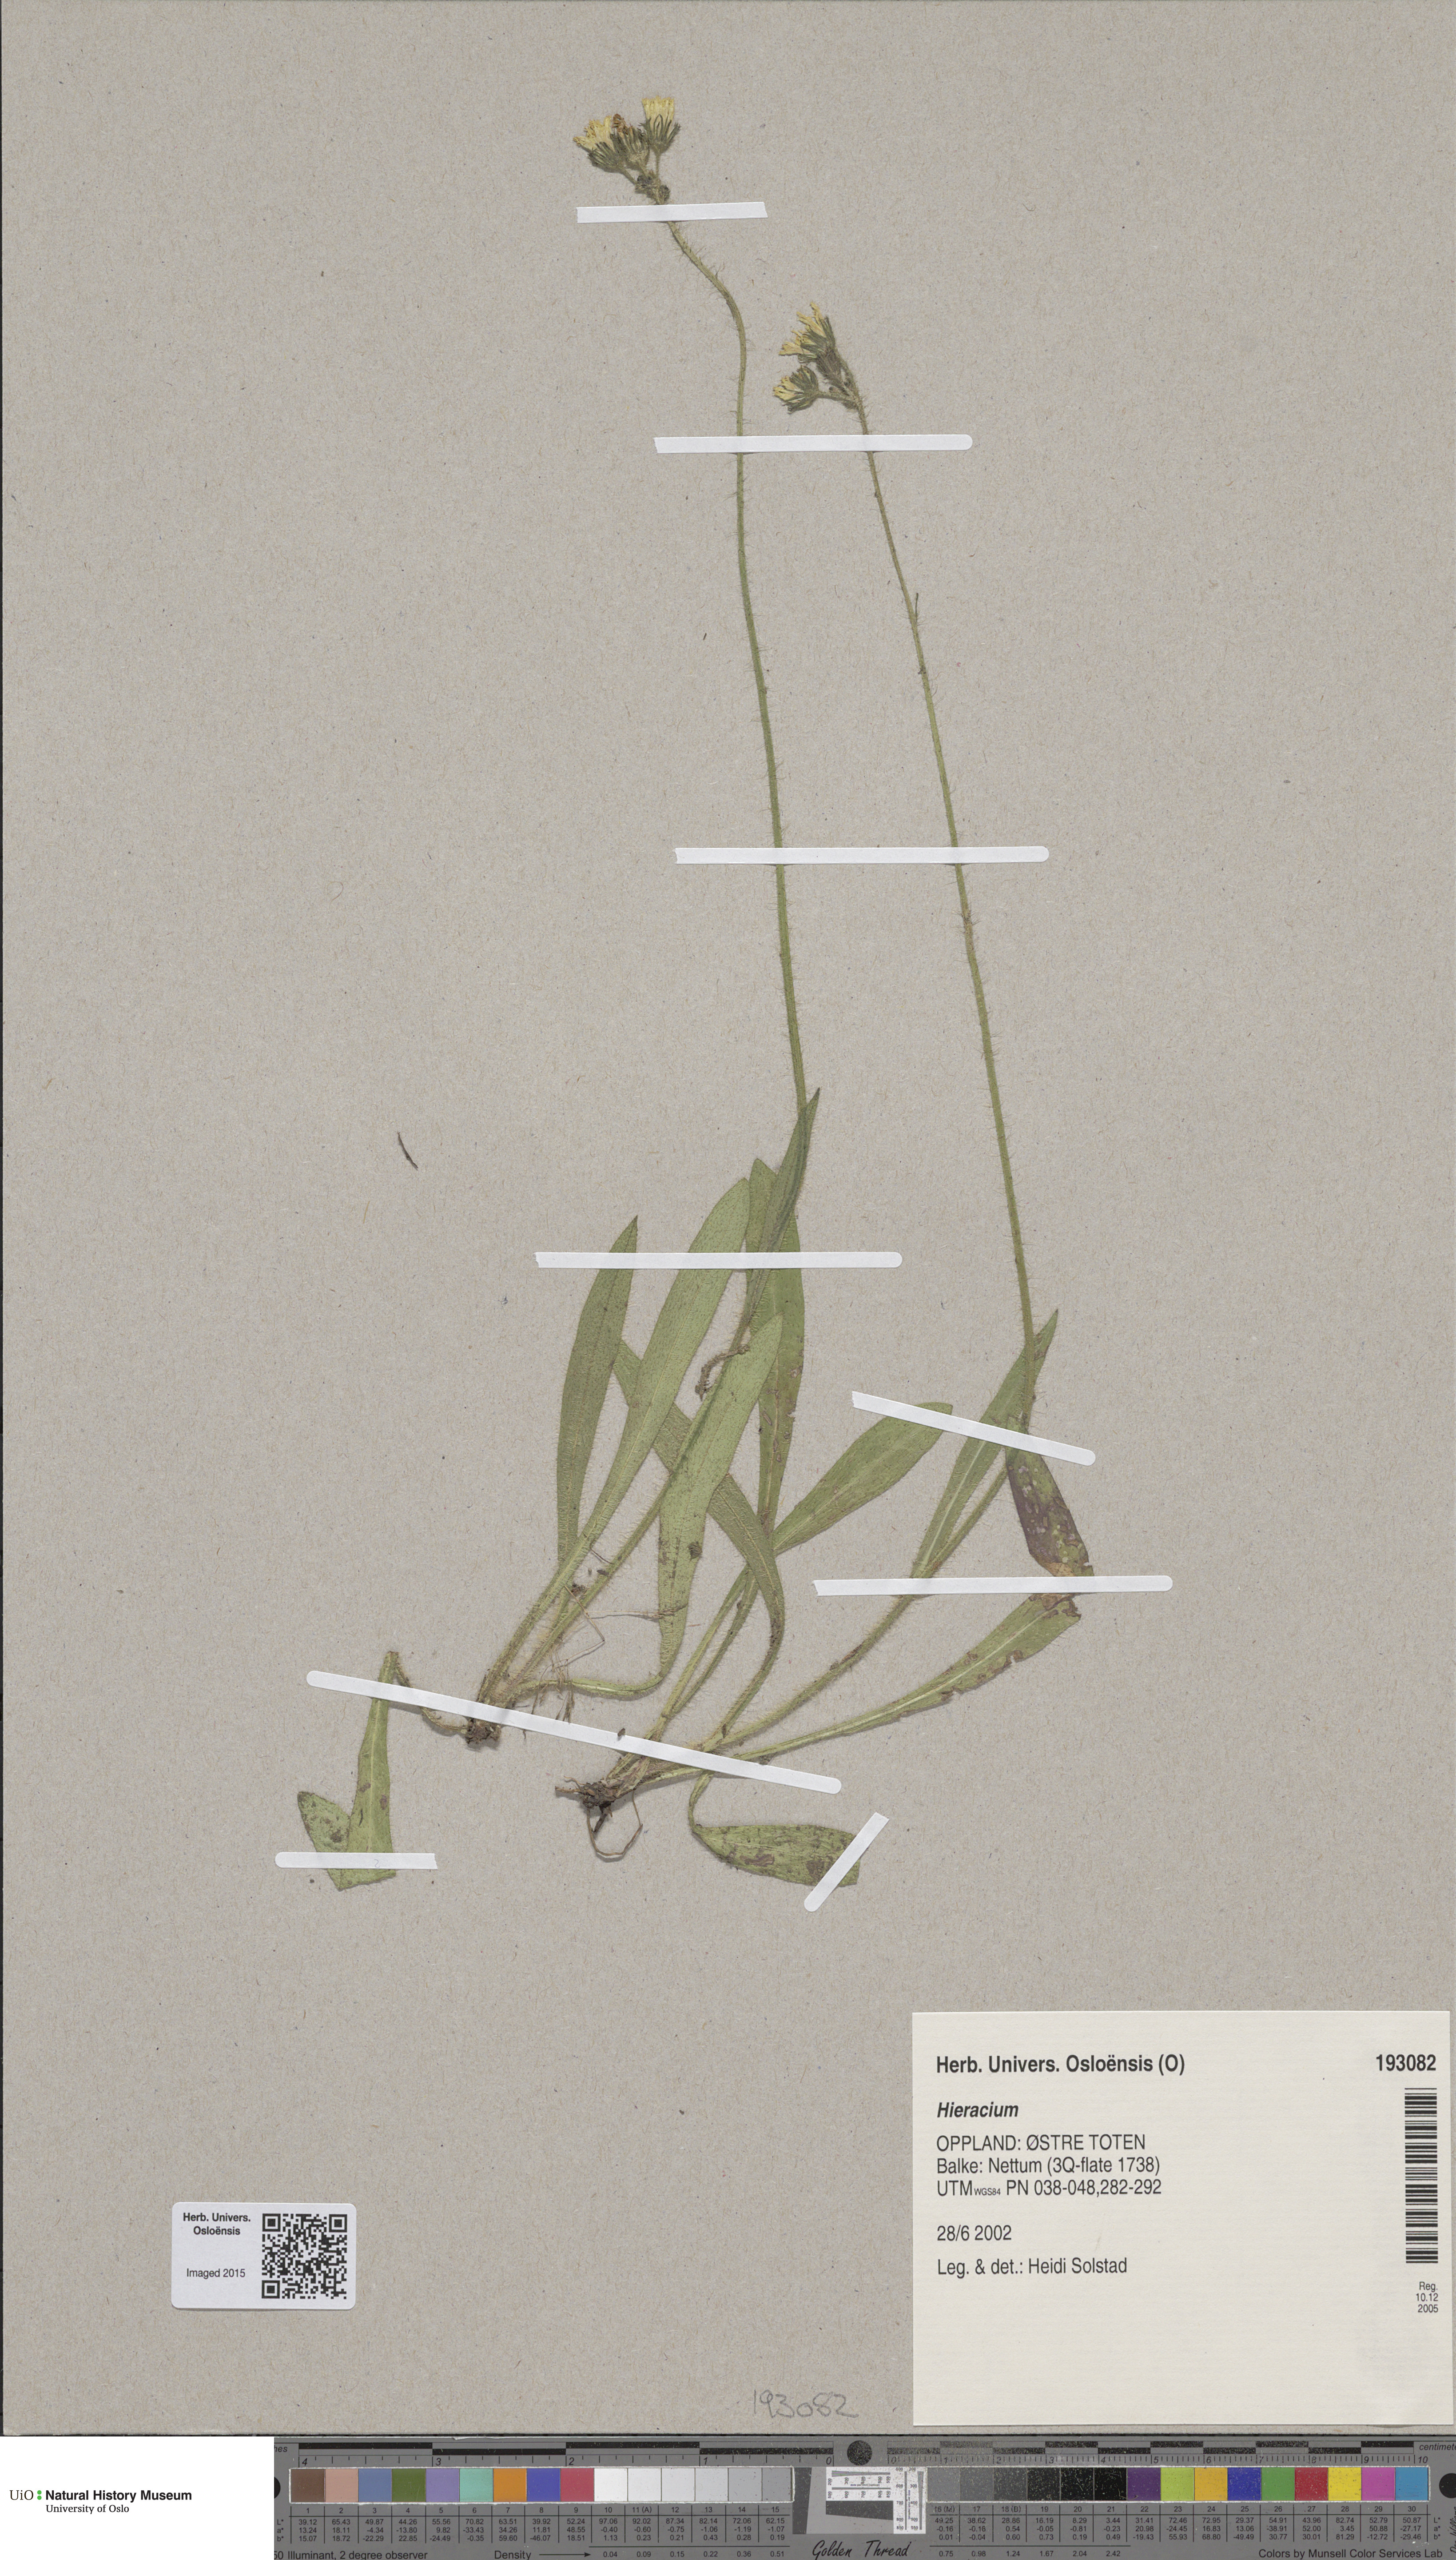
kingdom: Plantae
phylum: Tracheophyta
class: Magnoliopsida
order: Asterales
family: Asteraceae
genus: Hieracium
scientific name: Hieracium
